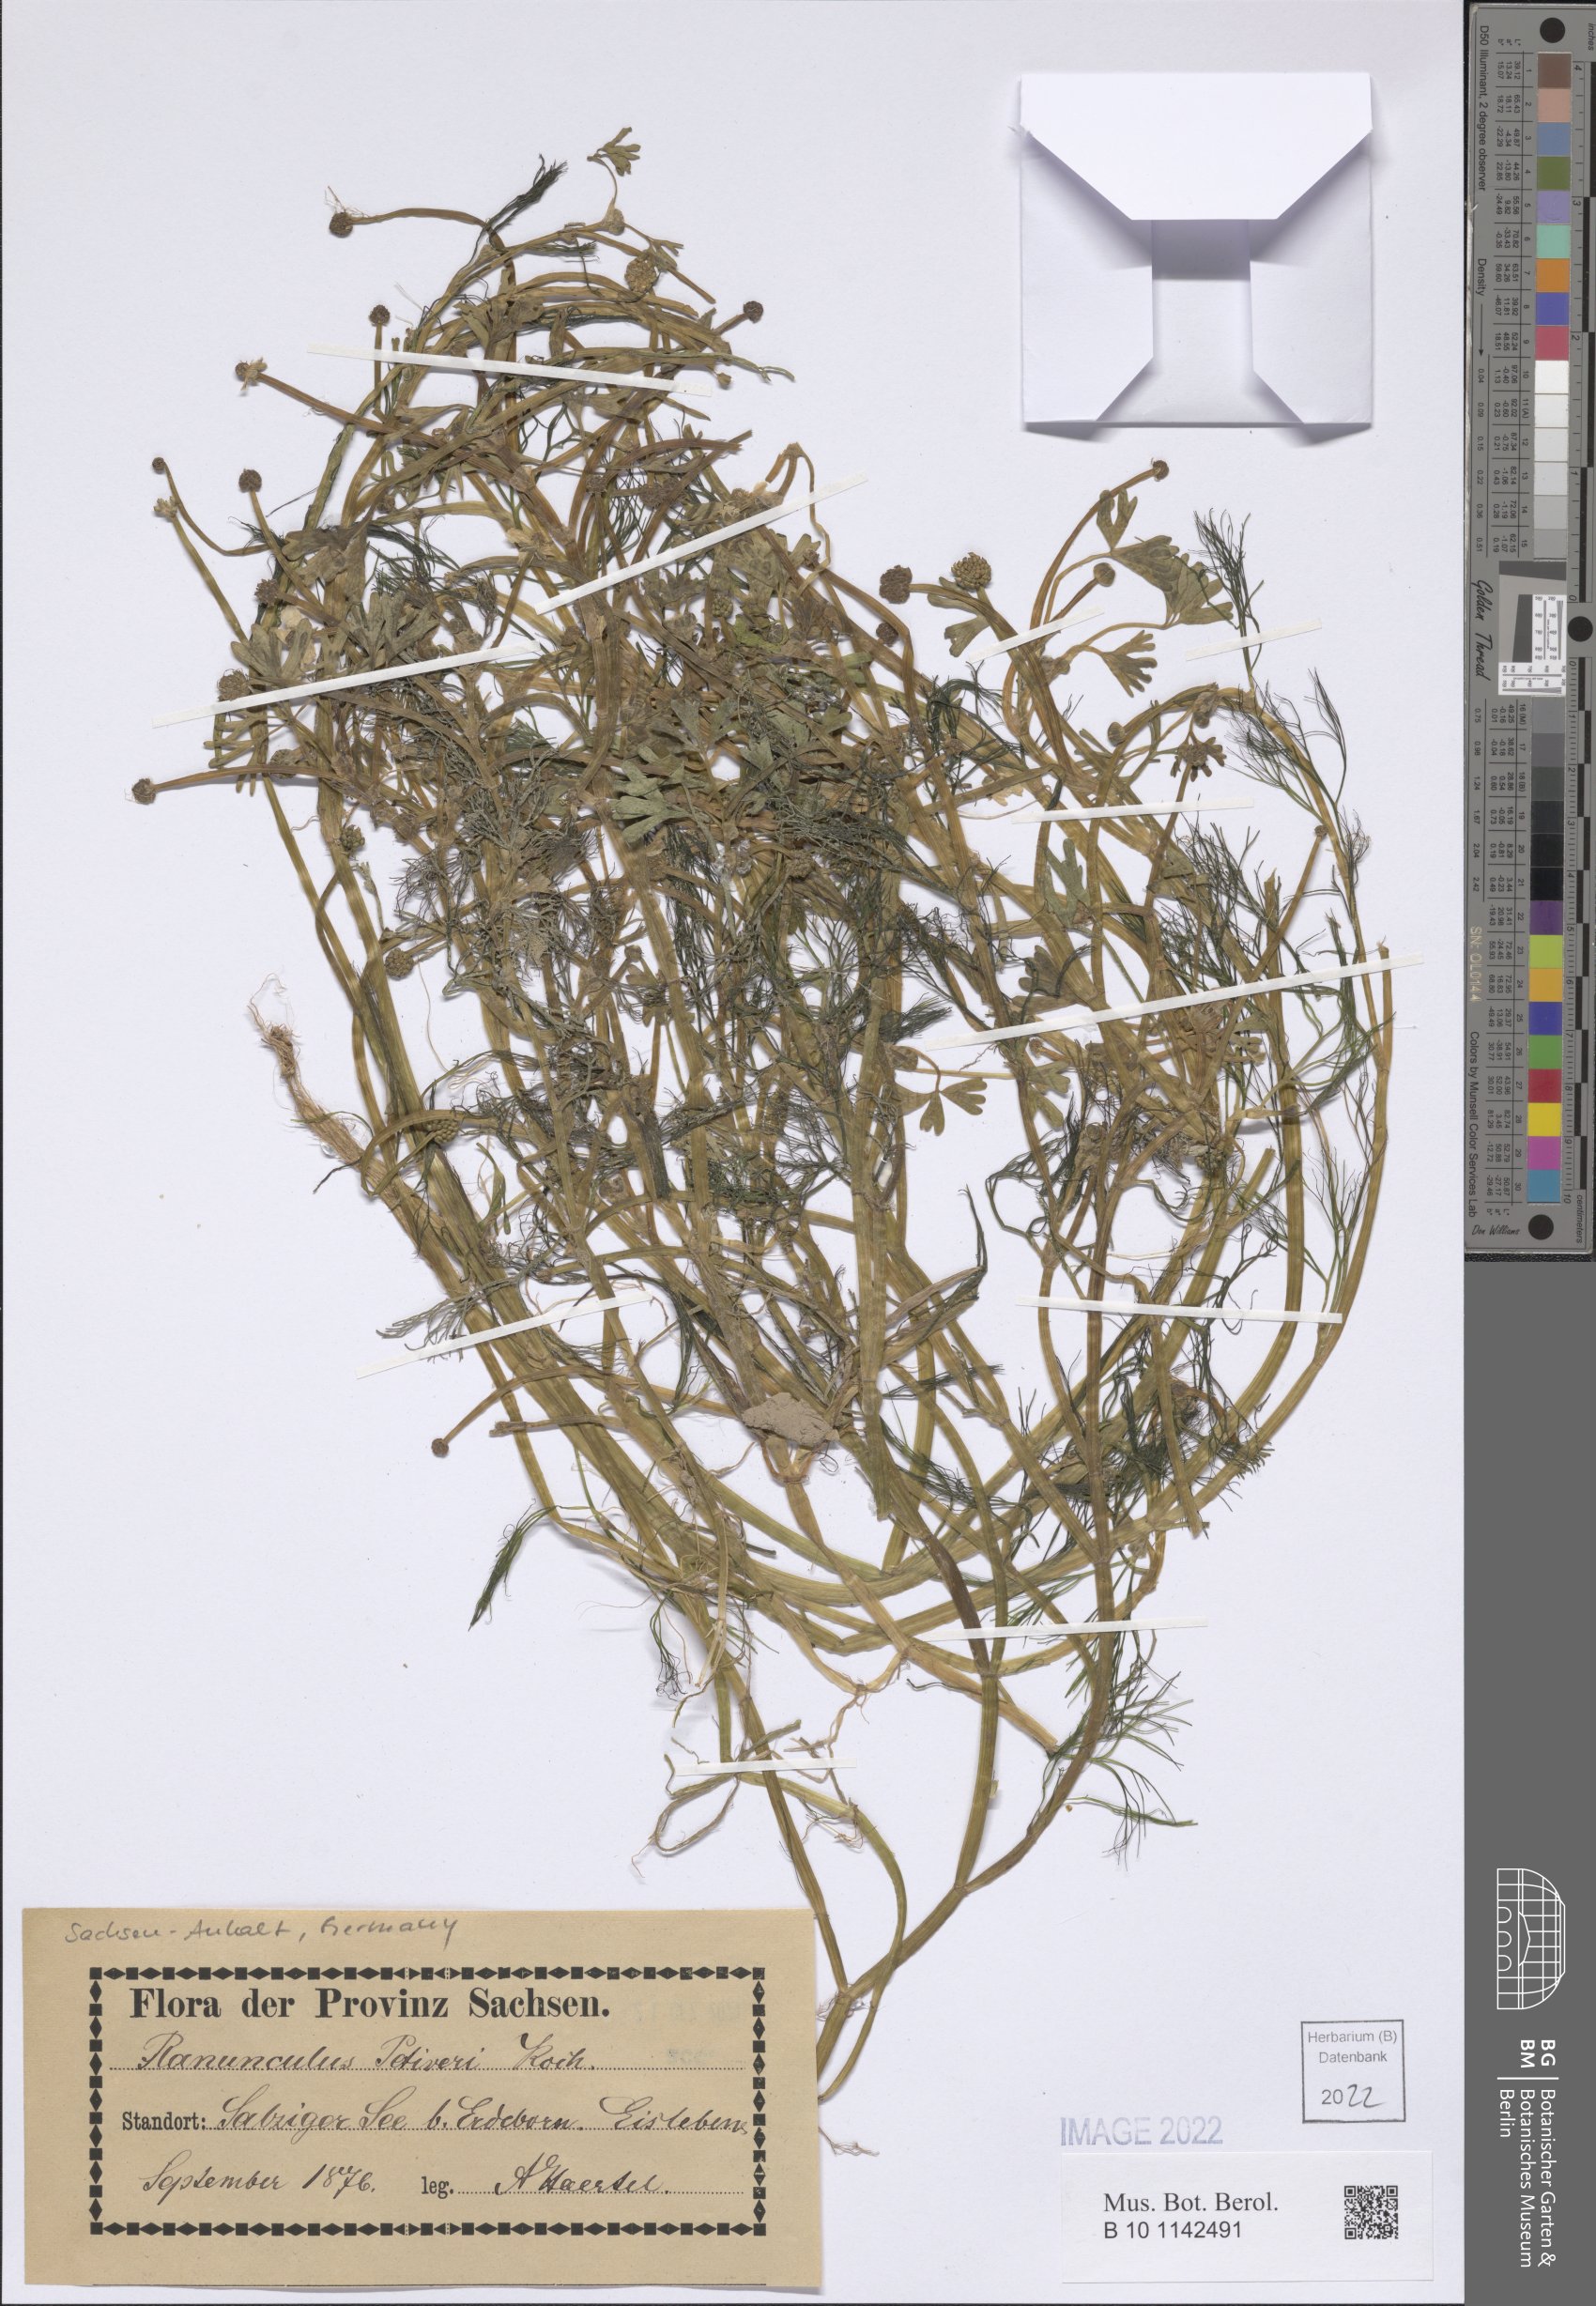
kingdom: Plantae
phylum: Tracheophyta
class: Magnoliopsida
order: Ranunculales
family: Ranunculaceae
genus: Ranunculus
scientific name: Ranunculus peltatus
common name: Pond water-crowfoot
